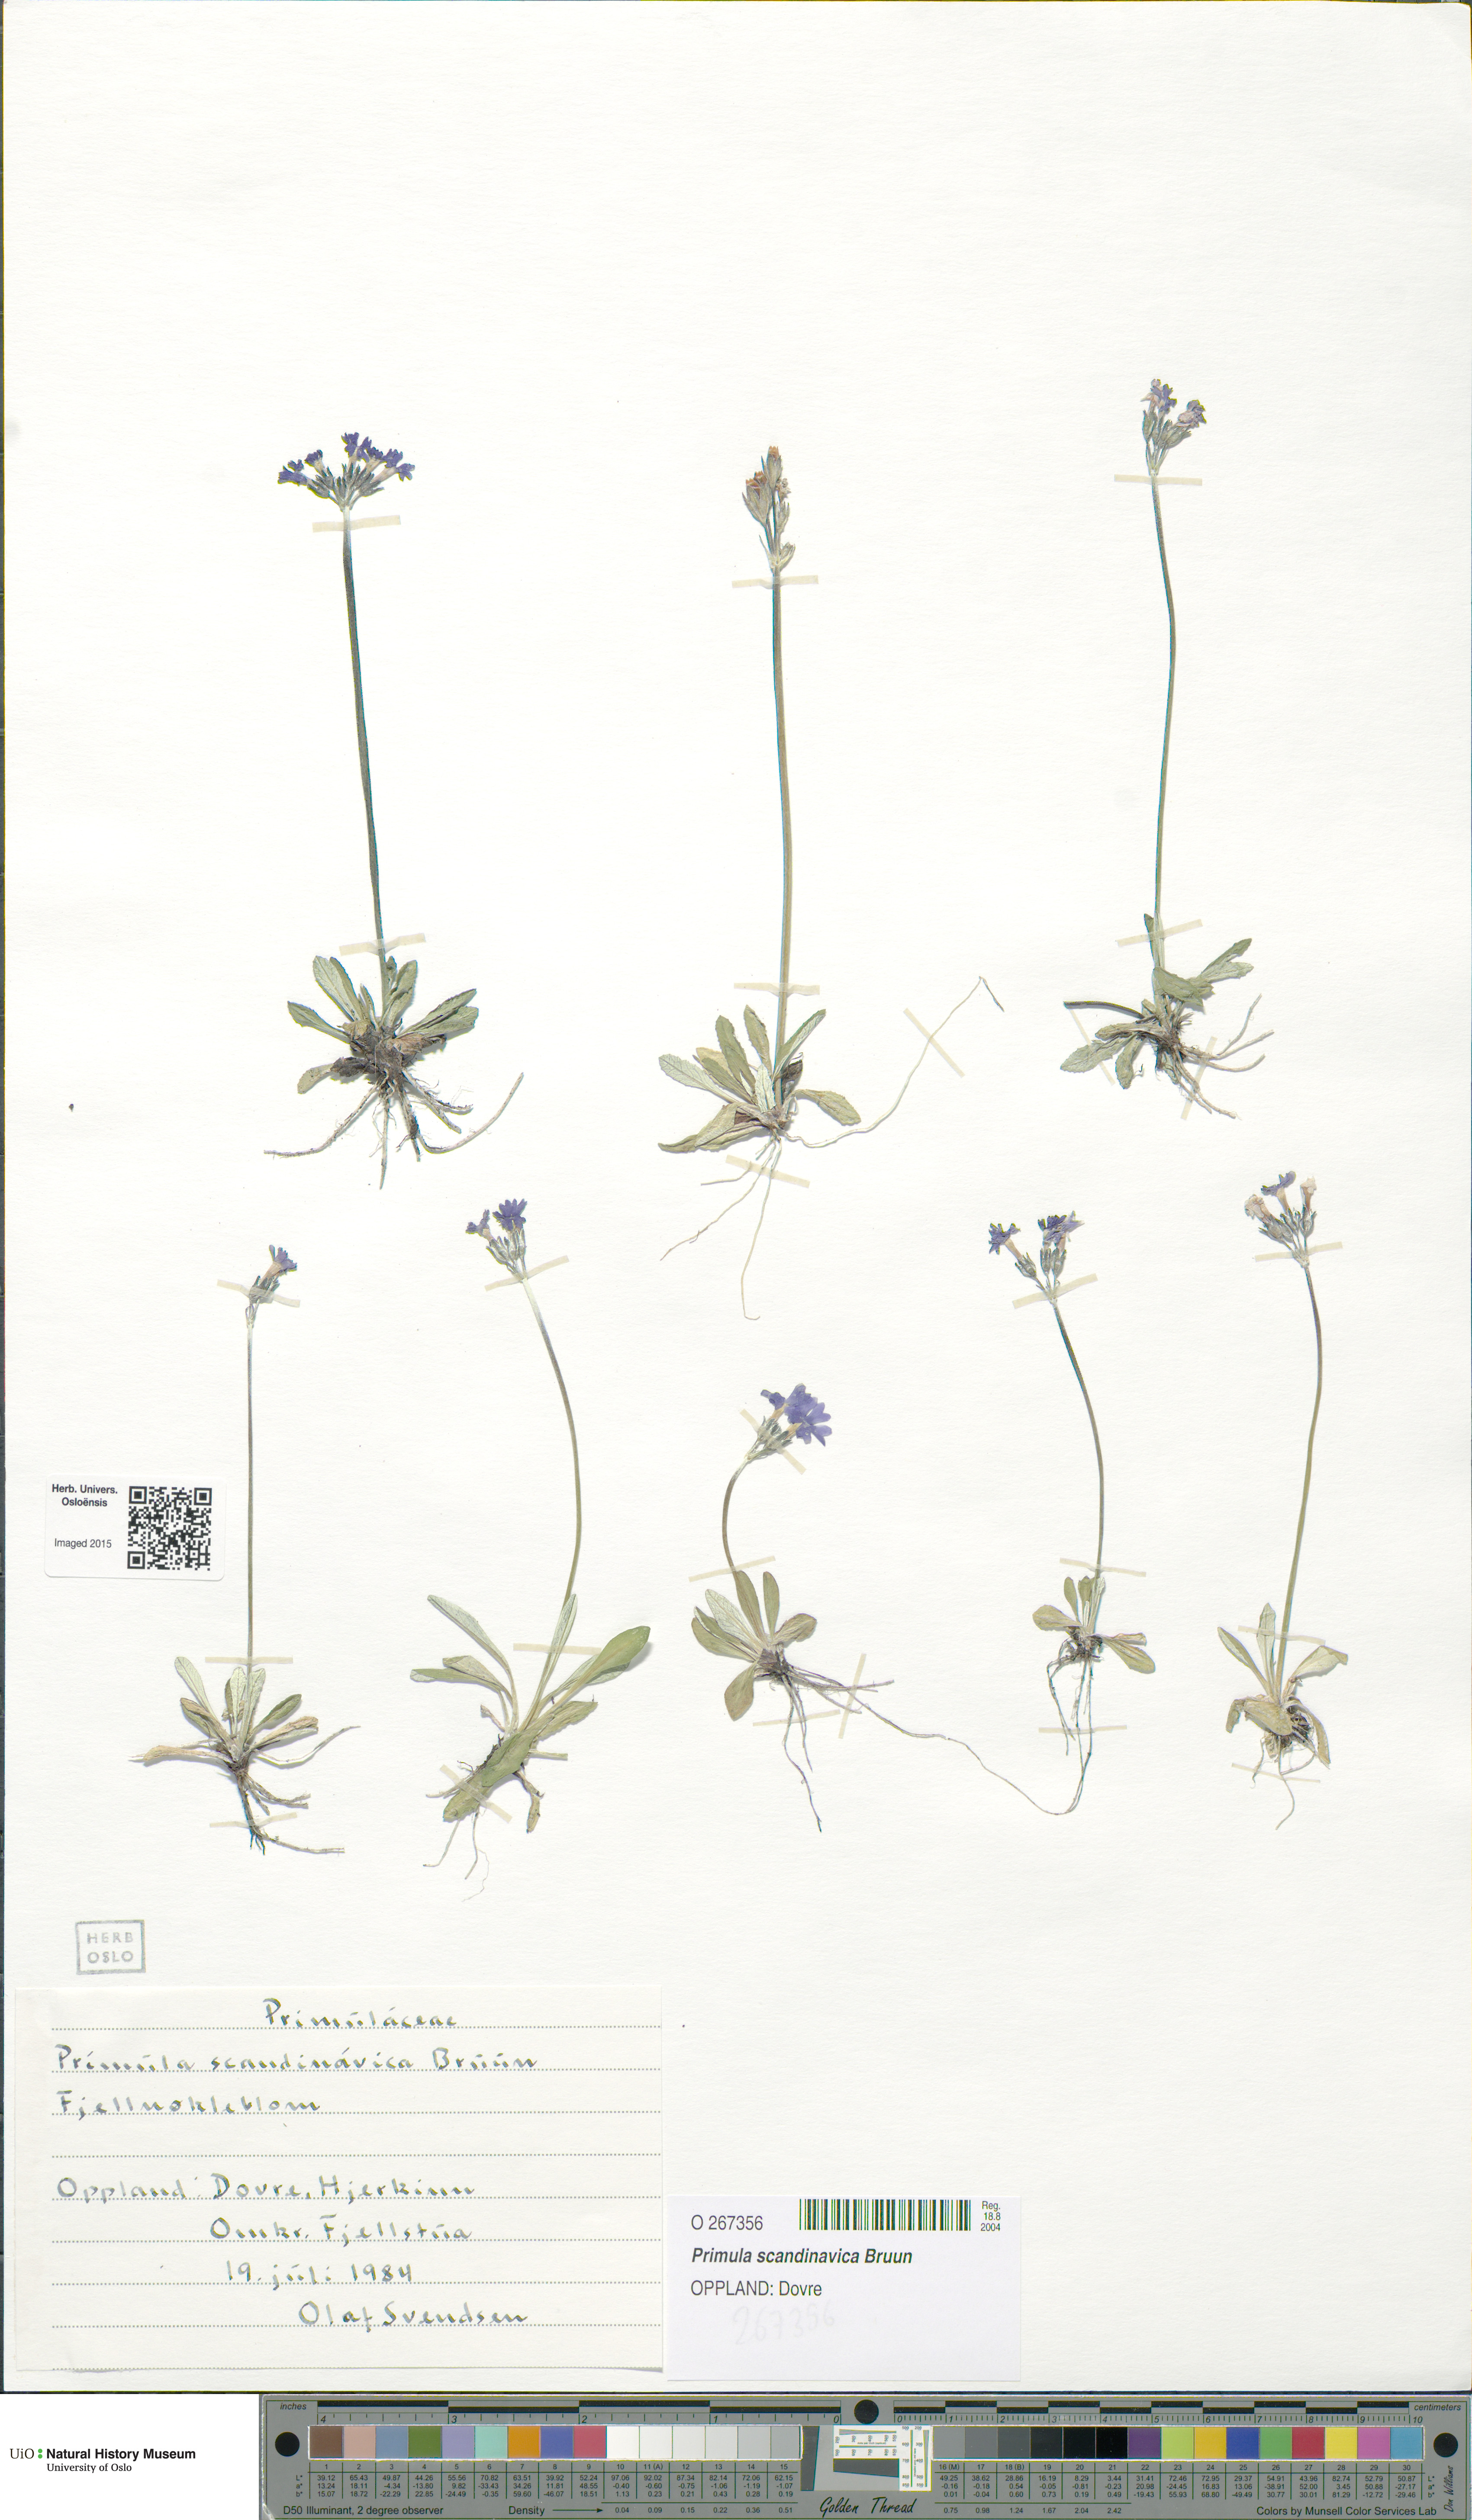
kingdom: Plantae
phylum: Tracheophyta
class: Magnoliopsida
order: Ericales
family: Primulaceae
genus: Primula
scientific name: Primula scandinavica
